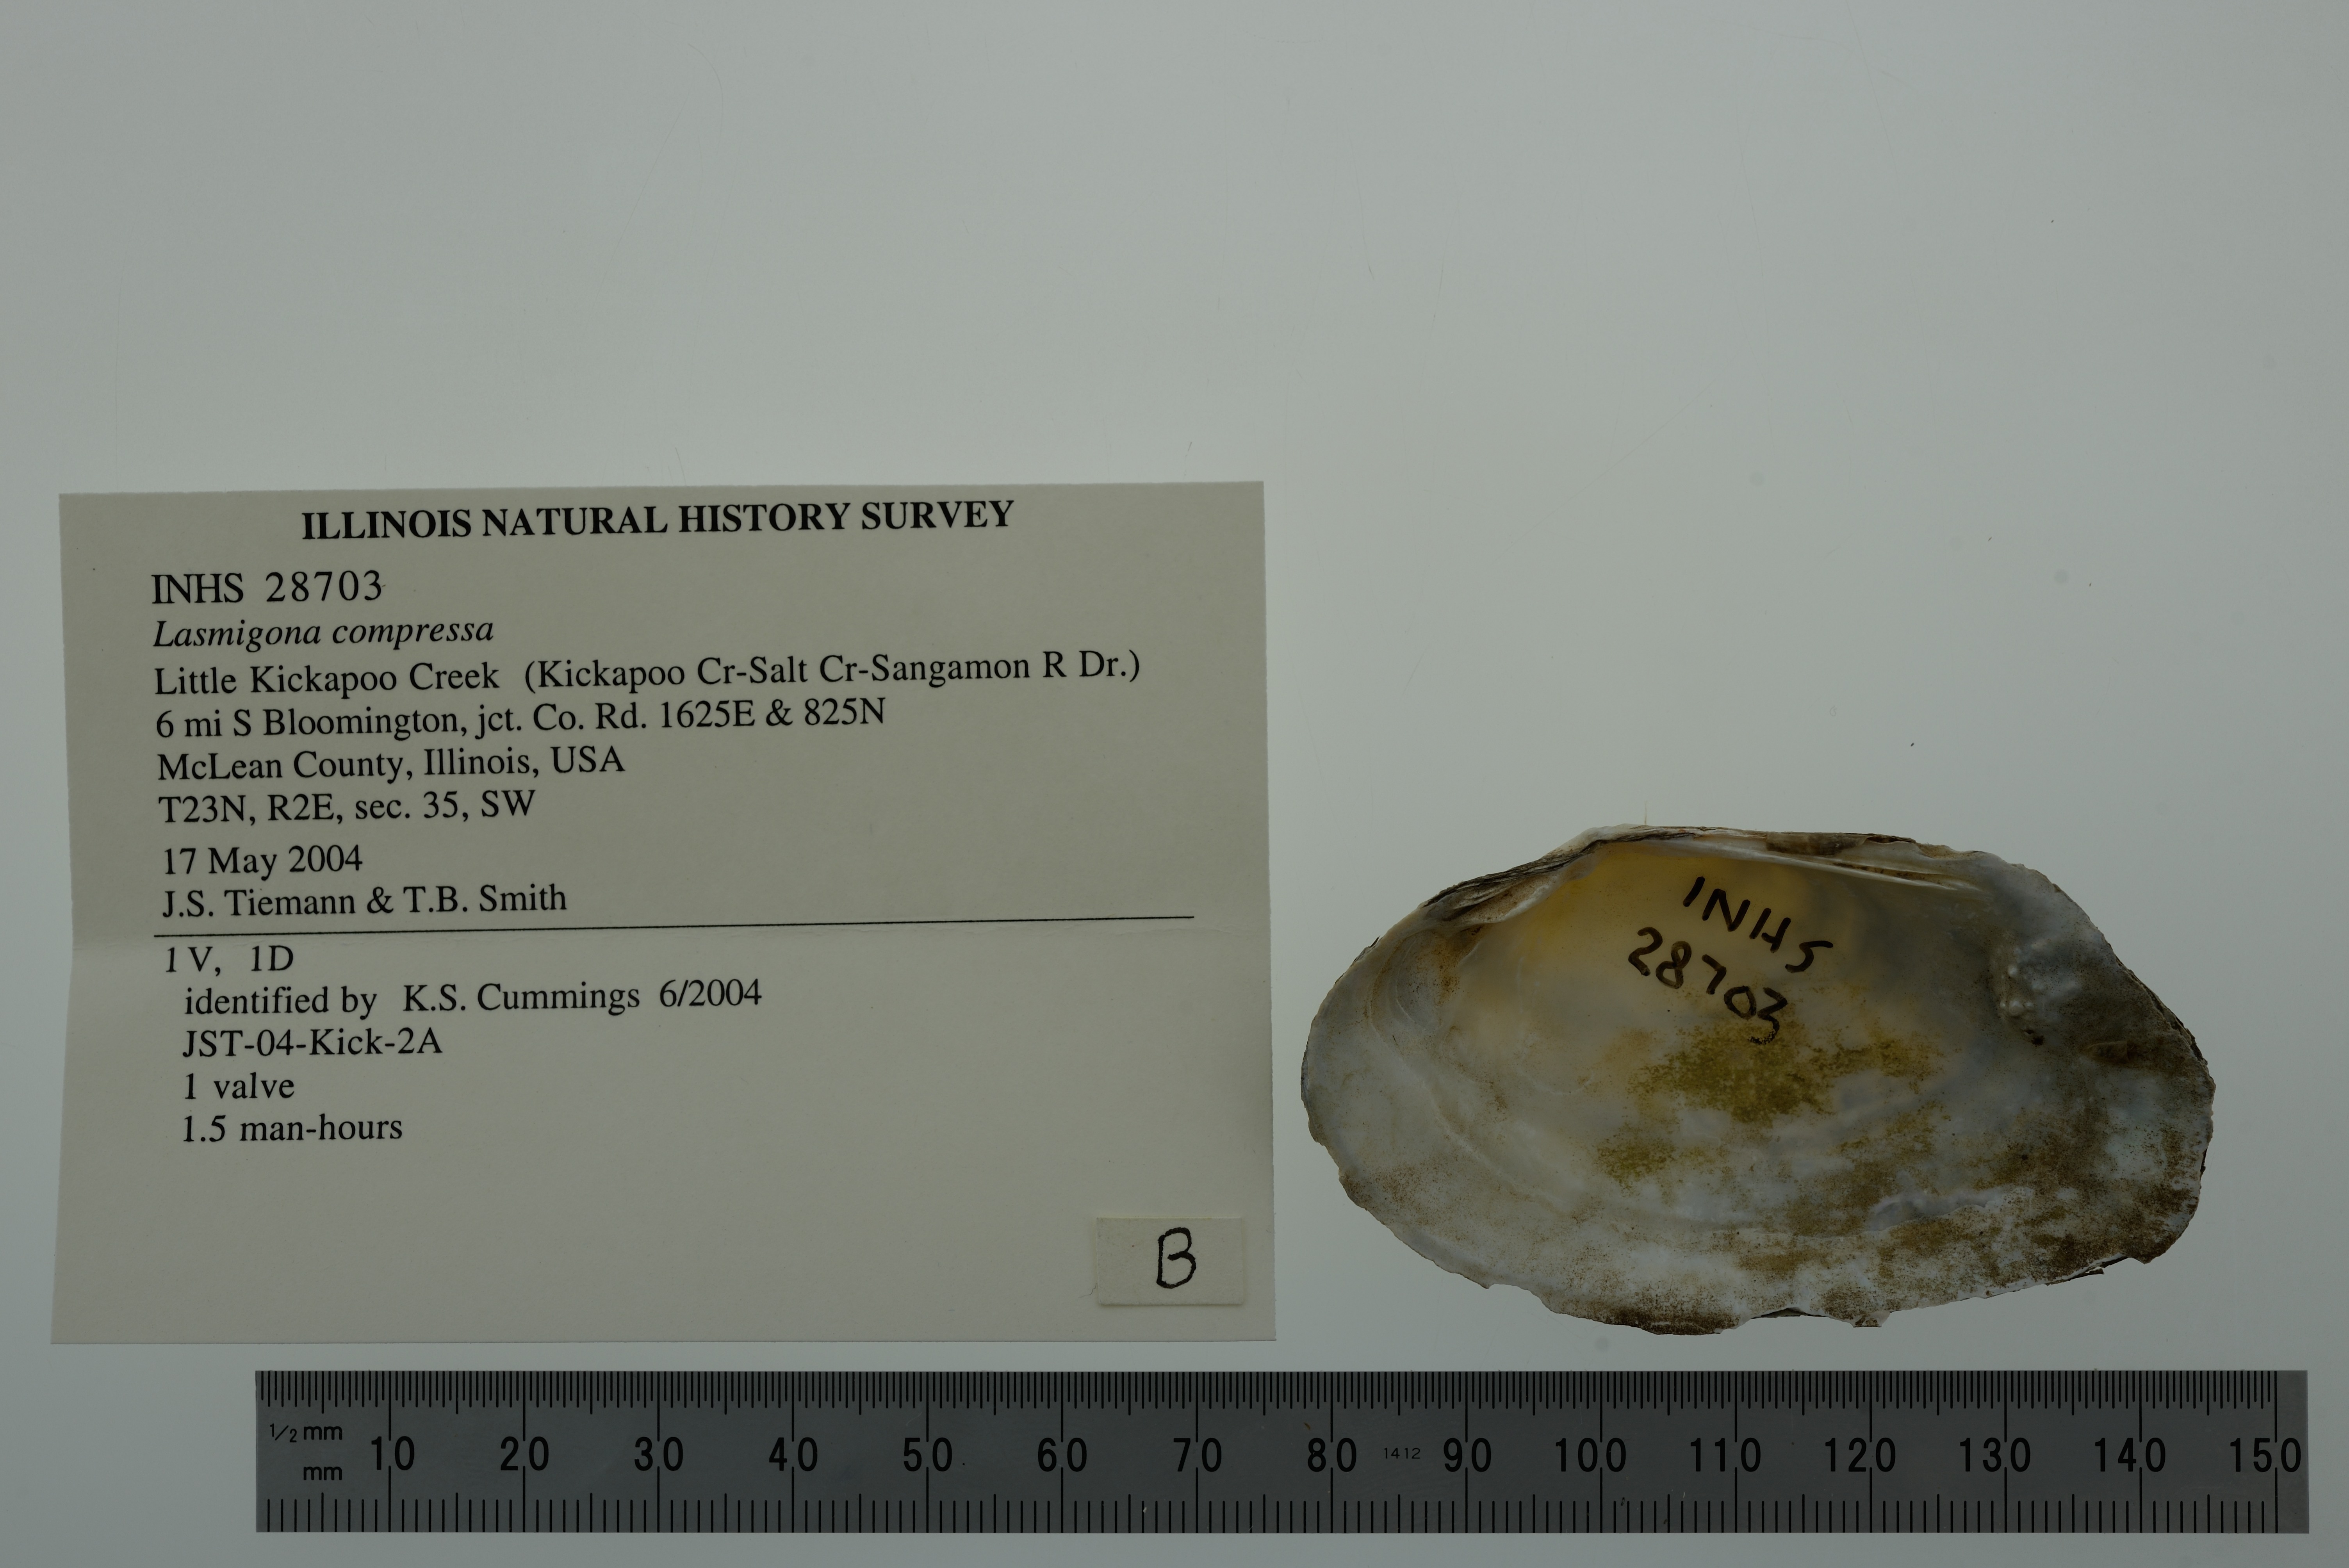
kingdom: Animalia
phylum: Mollusca
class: Bivalvia
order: Unionida
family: Unionidae
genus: Lasmigona
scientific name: Lasmigona compressa
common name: Creek heelsplitter
